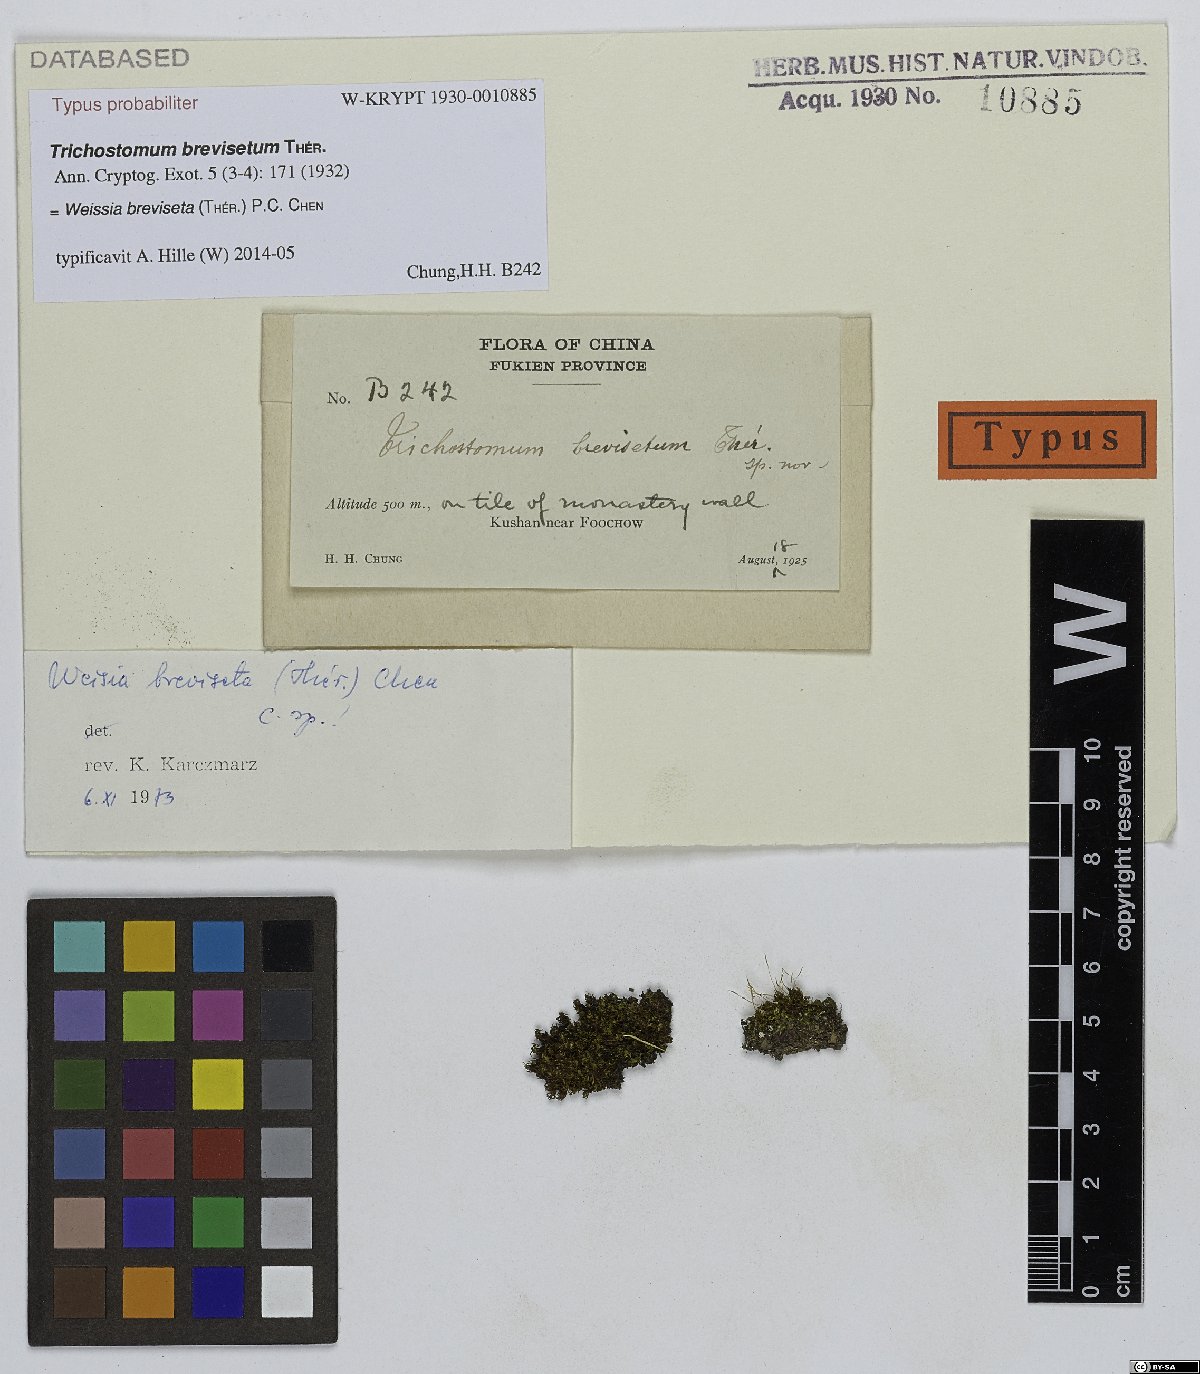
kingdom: Plantae
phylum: Bryophyta
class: Bryopsida
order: Pottiales
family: Pottiaceae
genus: Trichostomum
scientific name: Trichostomum brevisetum
